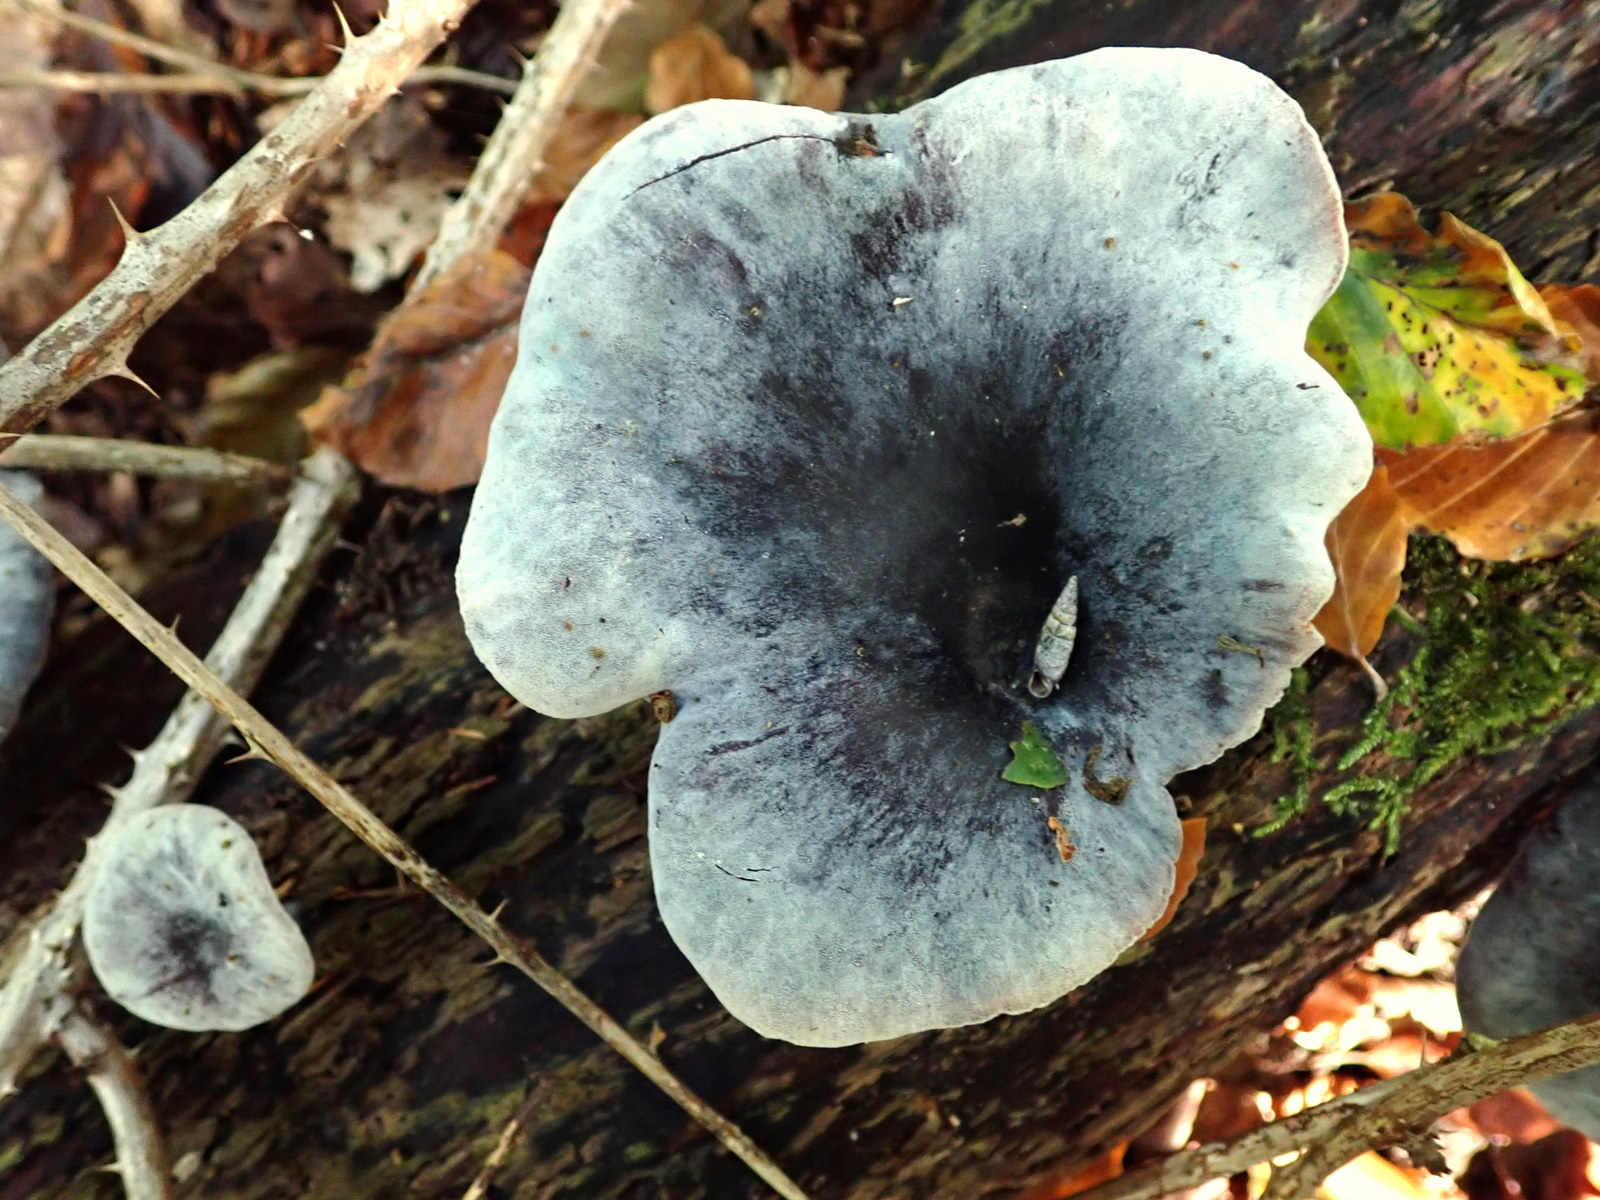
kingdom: Fungi
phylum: Basidiomycota
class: Agaricomycetes
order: Polyporales
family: Polyporaceae
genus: Picipes
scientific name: Picipes badius
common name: kastaniebrun stilkporesvamp
